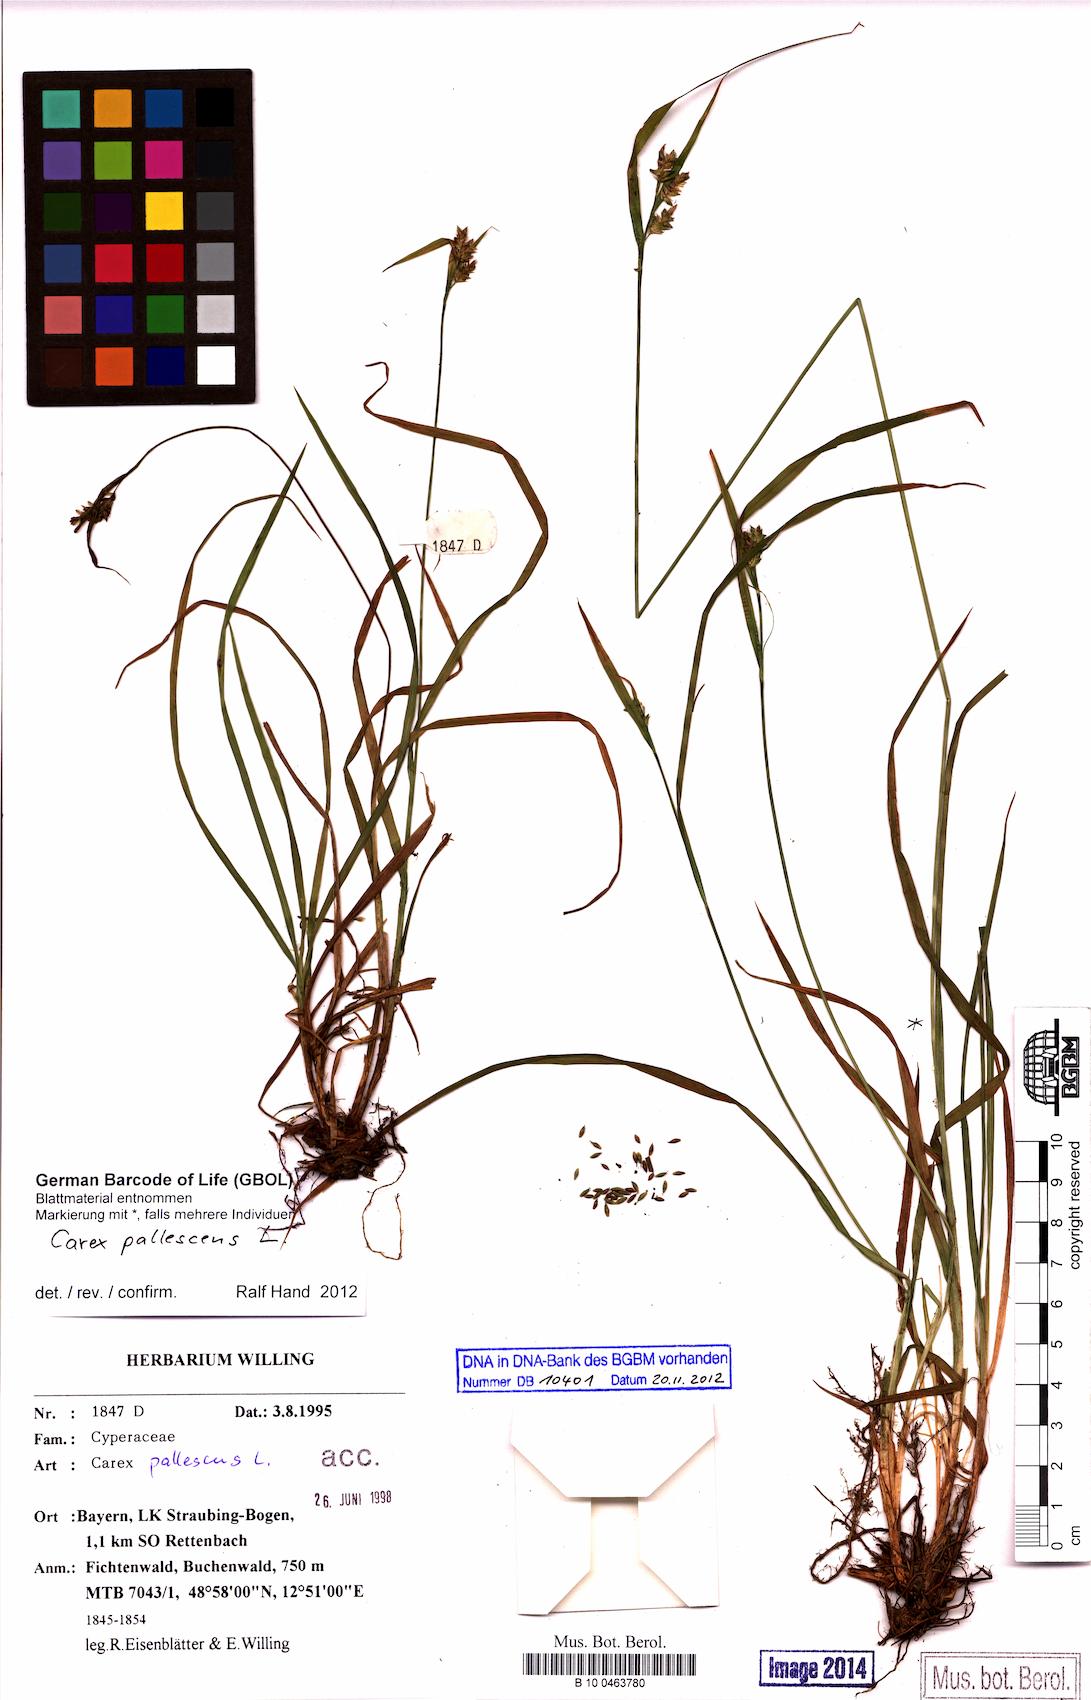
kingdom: Plantae
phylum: Tracheophyta
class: Liliopsida
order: Poales
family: Cyperaceae
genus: Carex
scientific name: Carex pallescens
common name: Pale sedge
